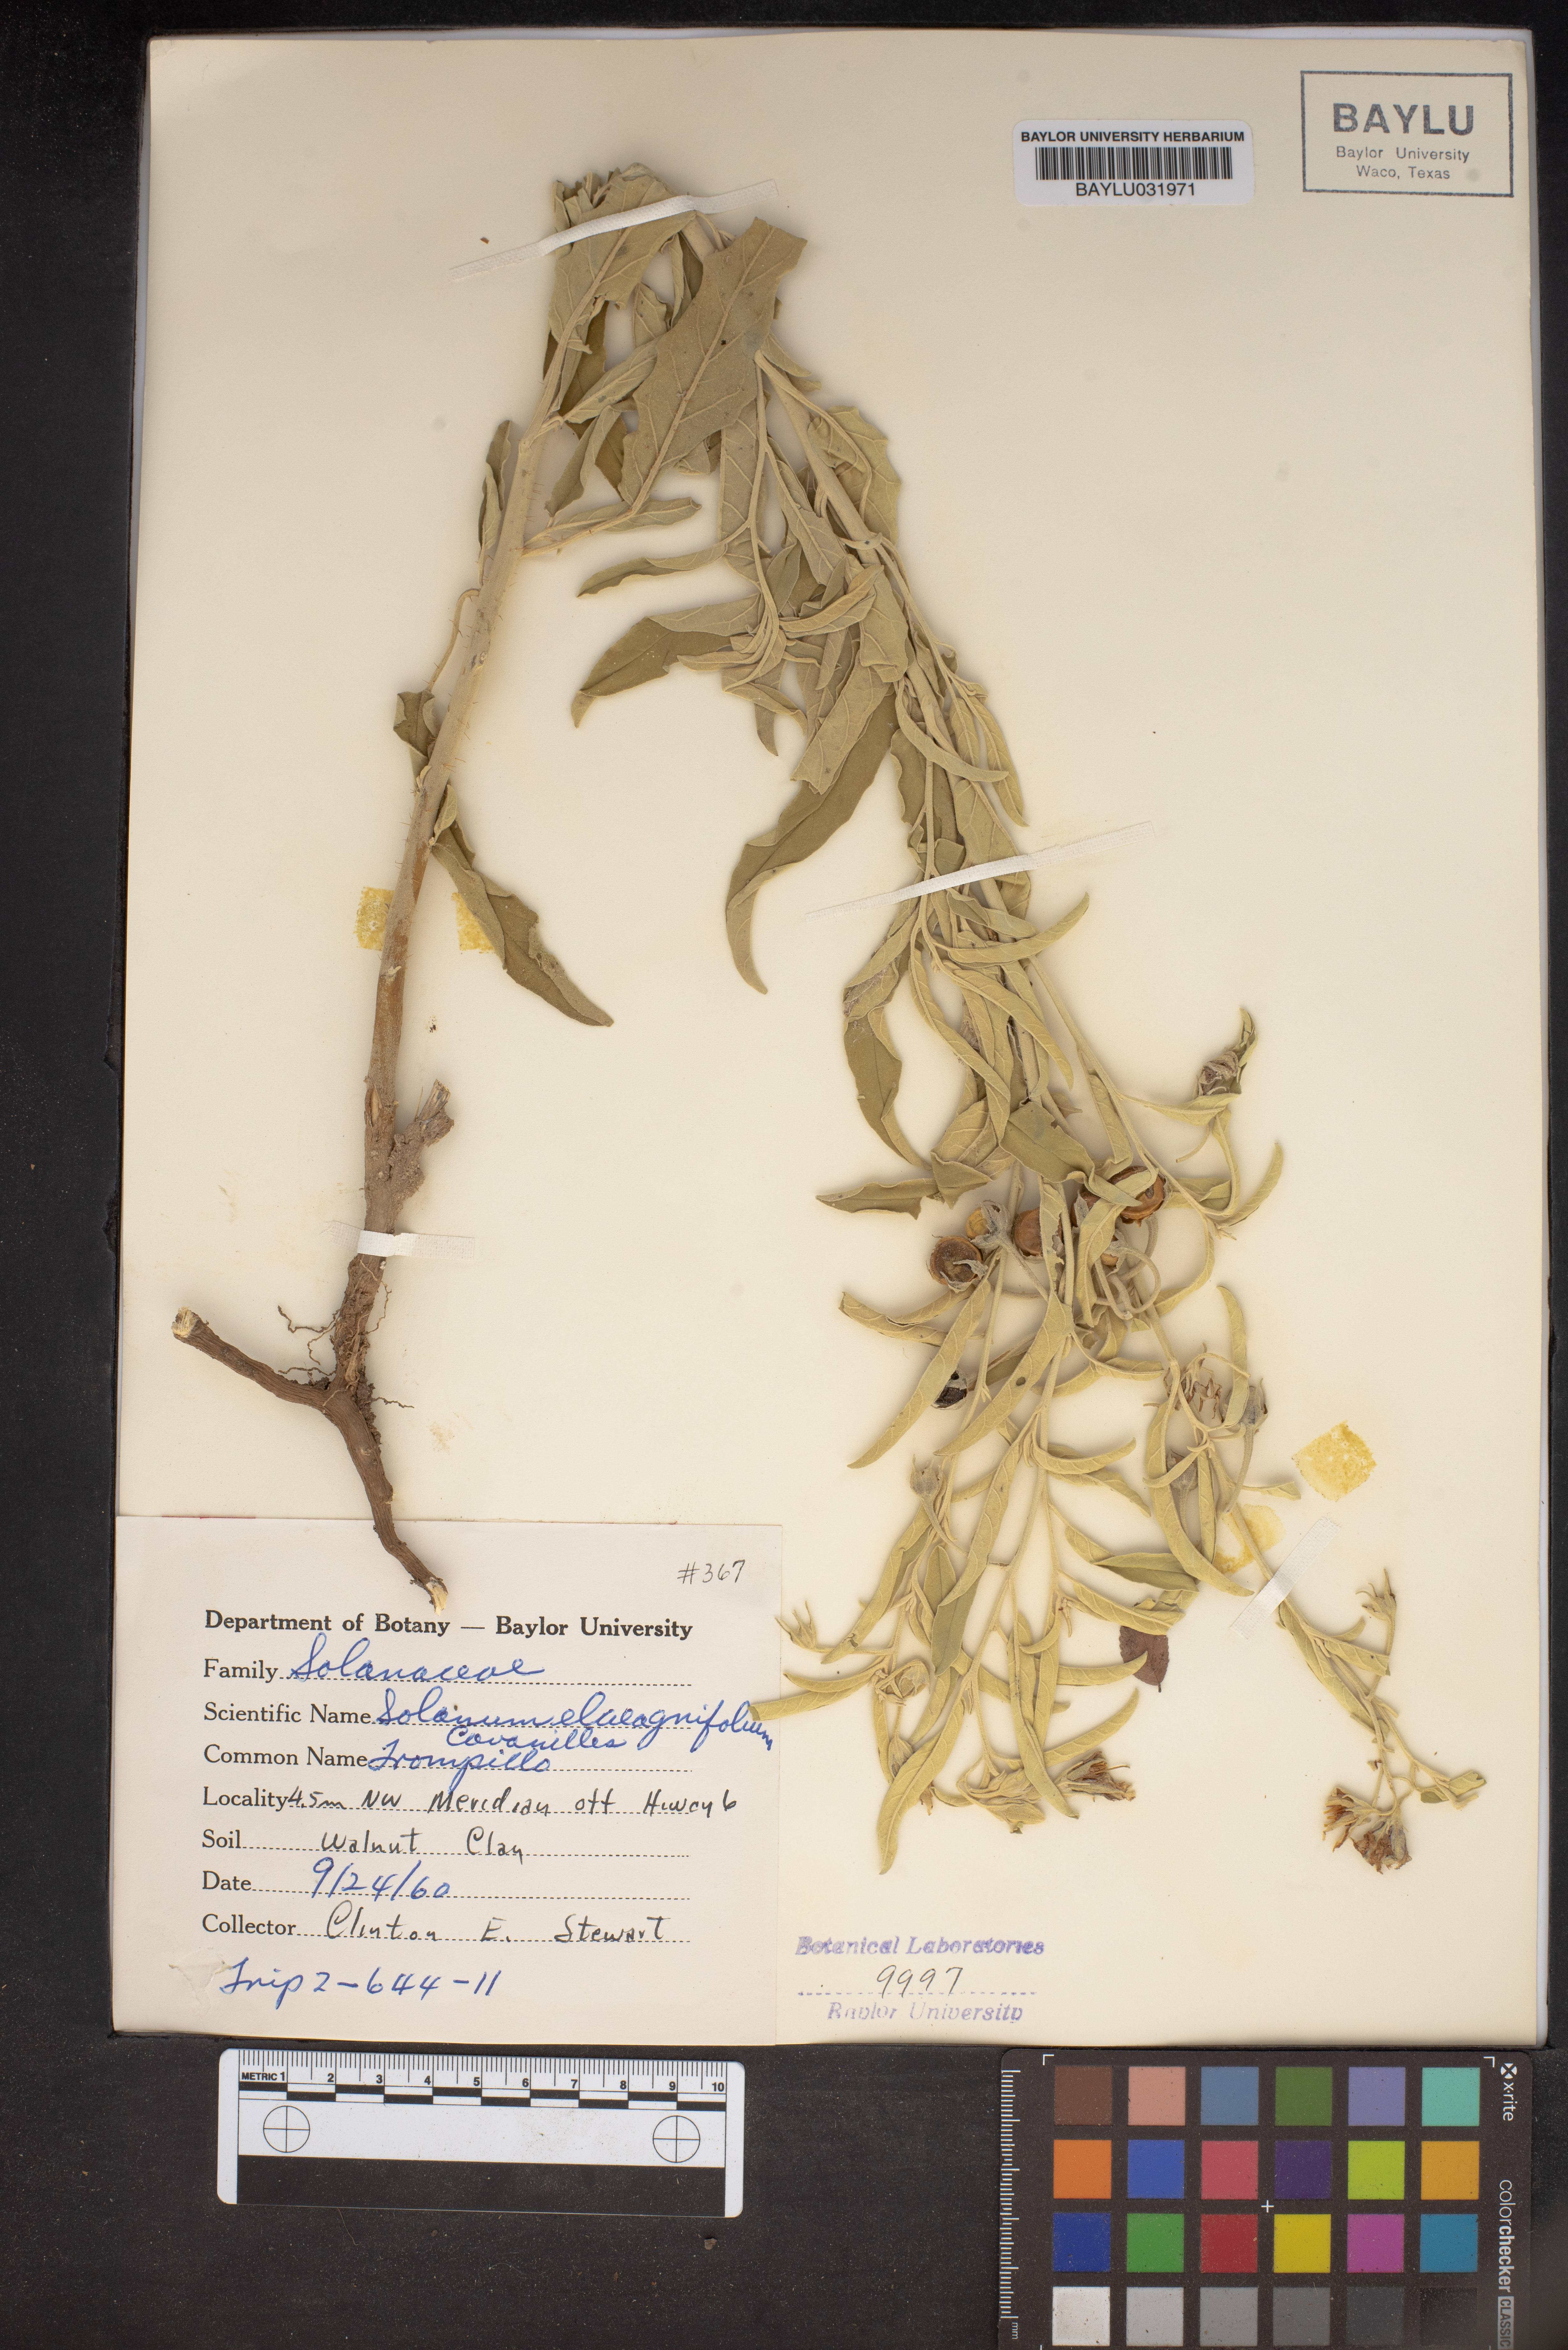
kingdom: Plantae
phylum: Tracheophyta
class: Magnoliopsida
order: Solanales
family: Solanaceae
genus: Solanum
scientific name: Solanum elaeagnifolium
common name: Silverleaf nightshade
